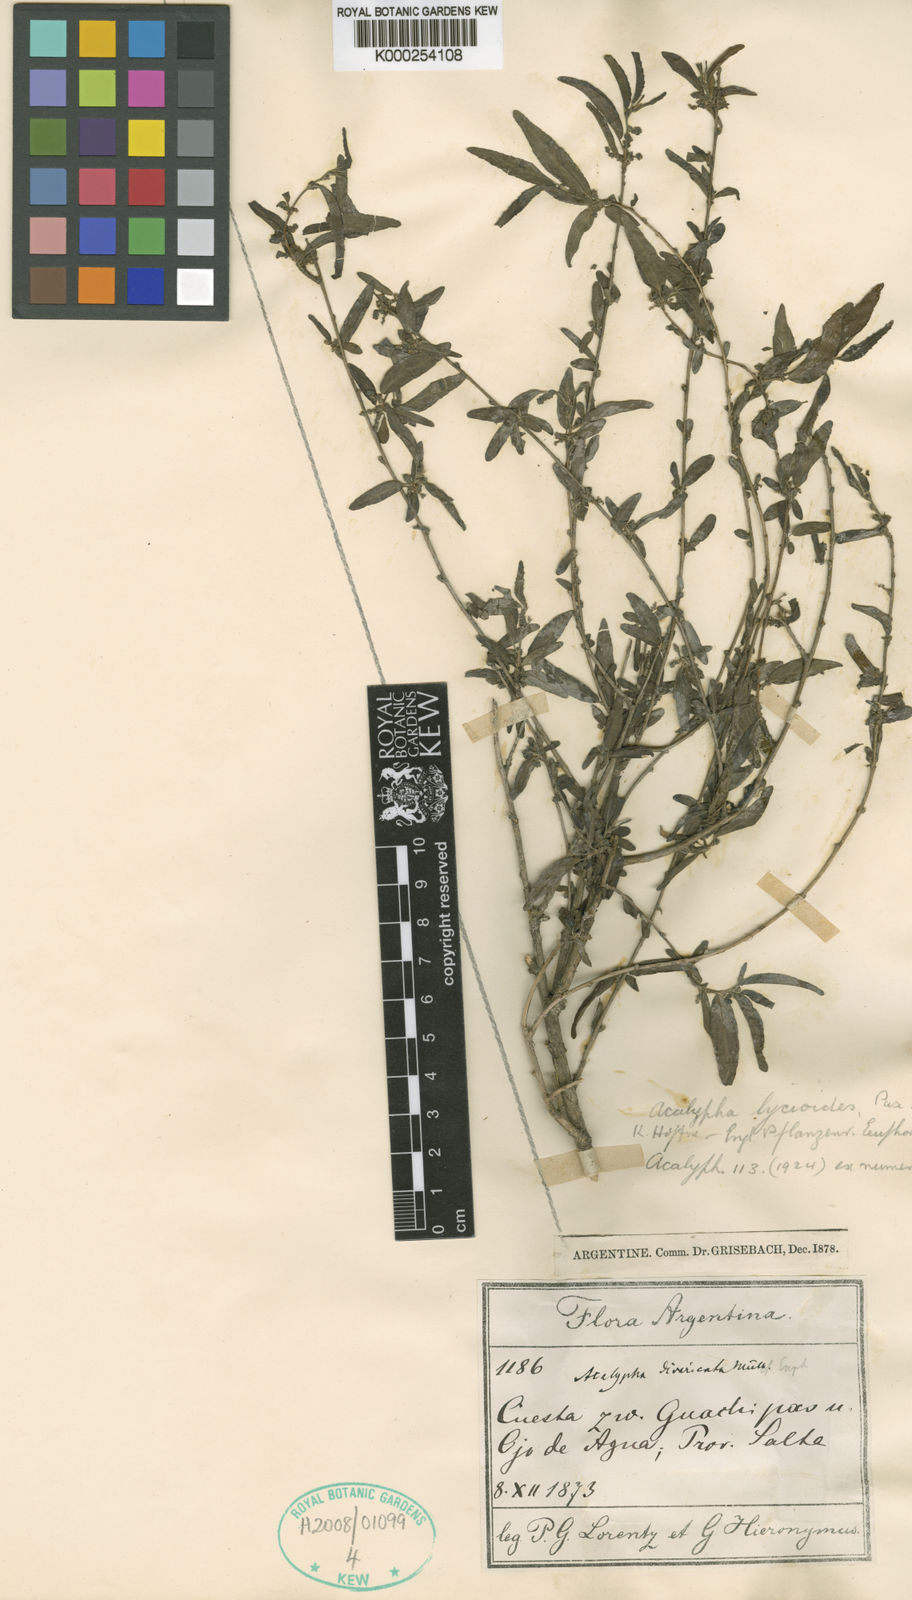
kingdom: Plantae
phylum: Tracheophyta
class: Magnoliopsida
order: Malpighiales
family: Euphorbiaceae
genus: Acalypha
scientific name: Acalypha lycioides
